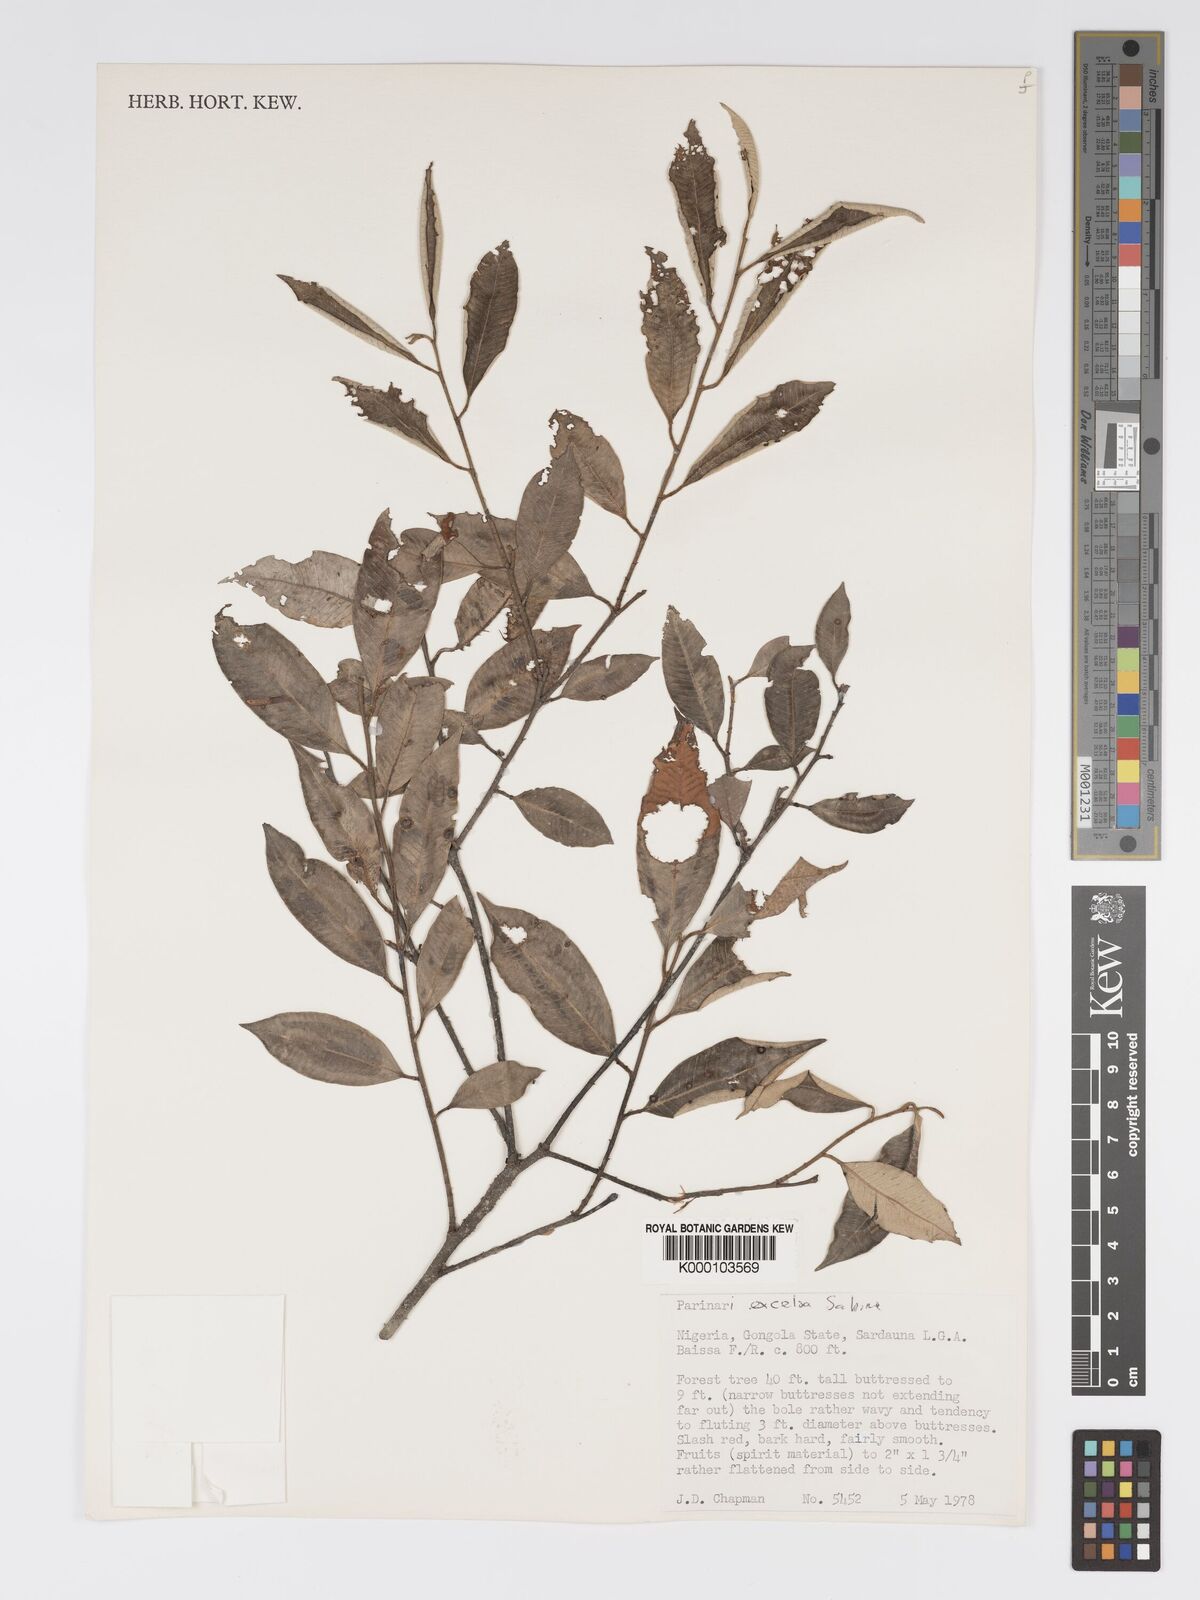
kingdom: Plantae
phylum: Tracheophyta
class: Magnoliopsida
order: Malpighiales
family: Chrysobalanaceae
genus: Parinari
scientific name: Parinari excelsa
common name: Guinea-plum
